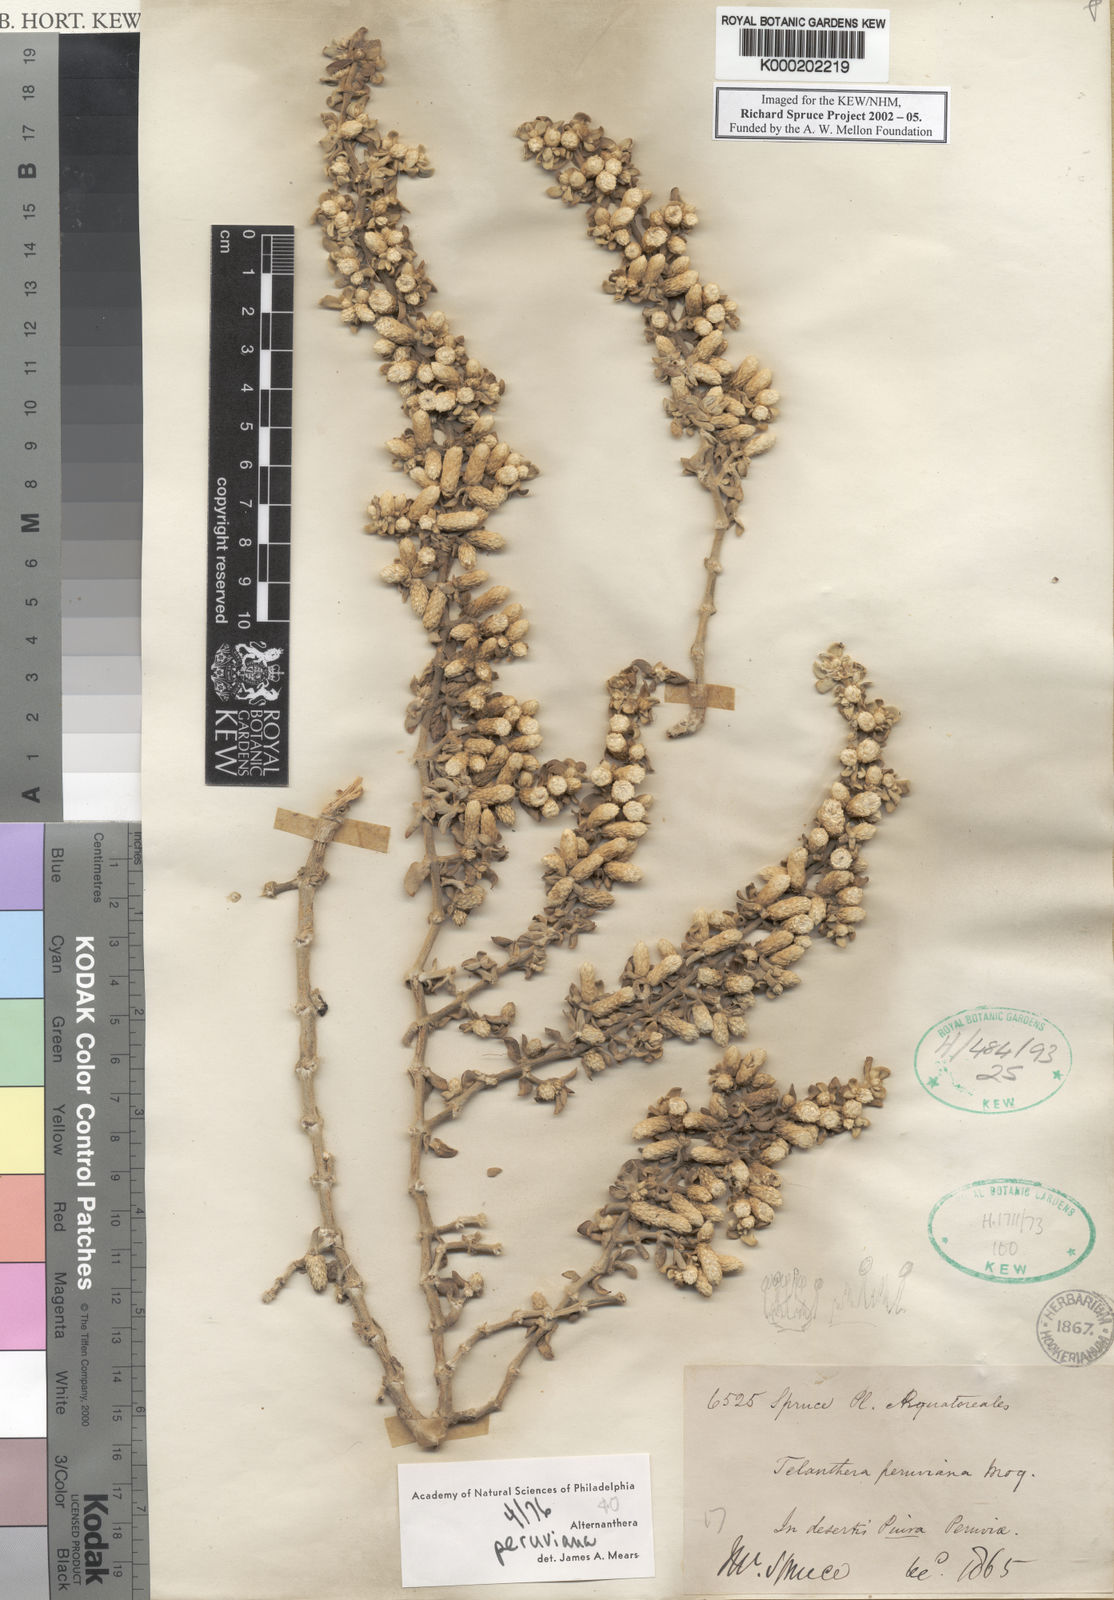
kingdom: Plantae
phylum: Tracheophyta
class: Magnoliopsida
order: Caryophyllales
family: Amaranthaceae
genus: Alternanthera
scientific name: Alternanthera peruviana
